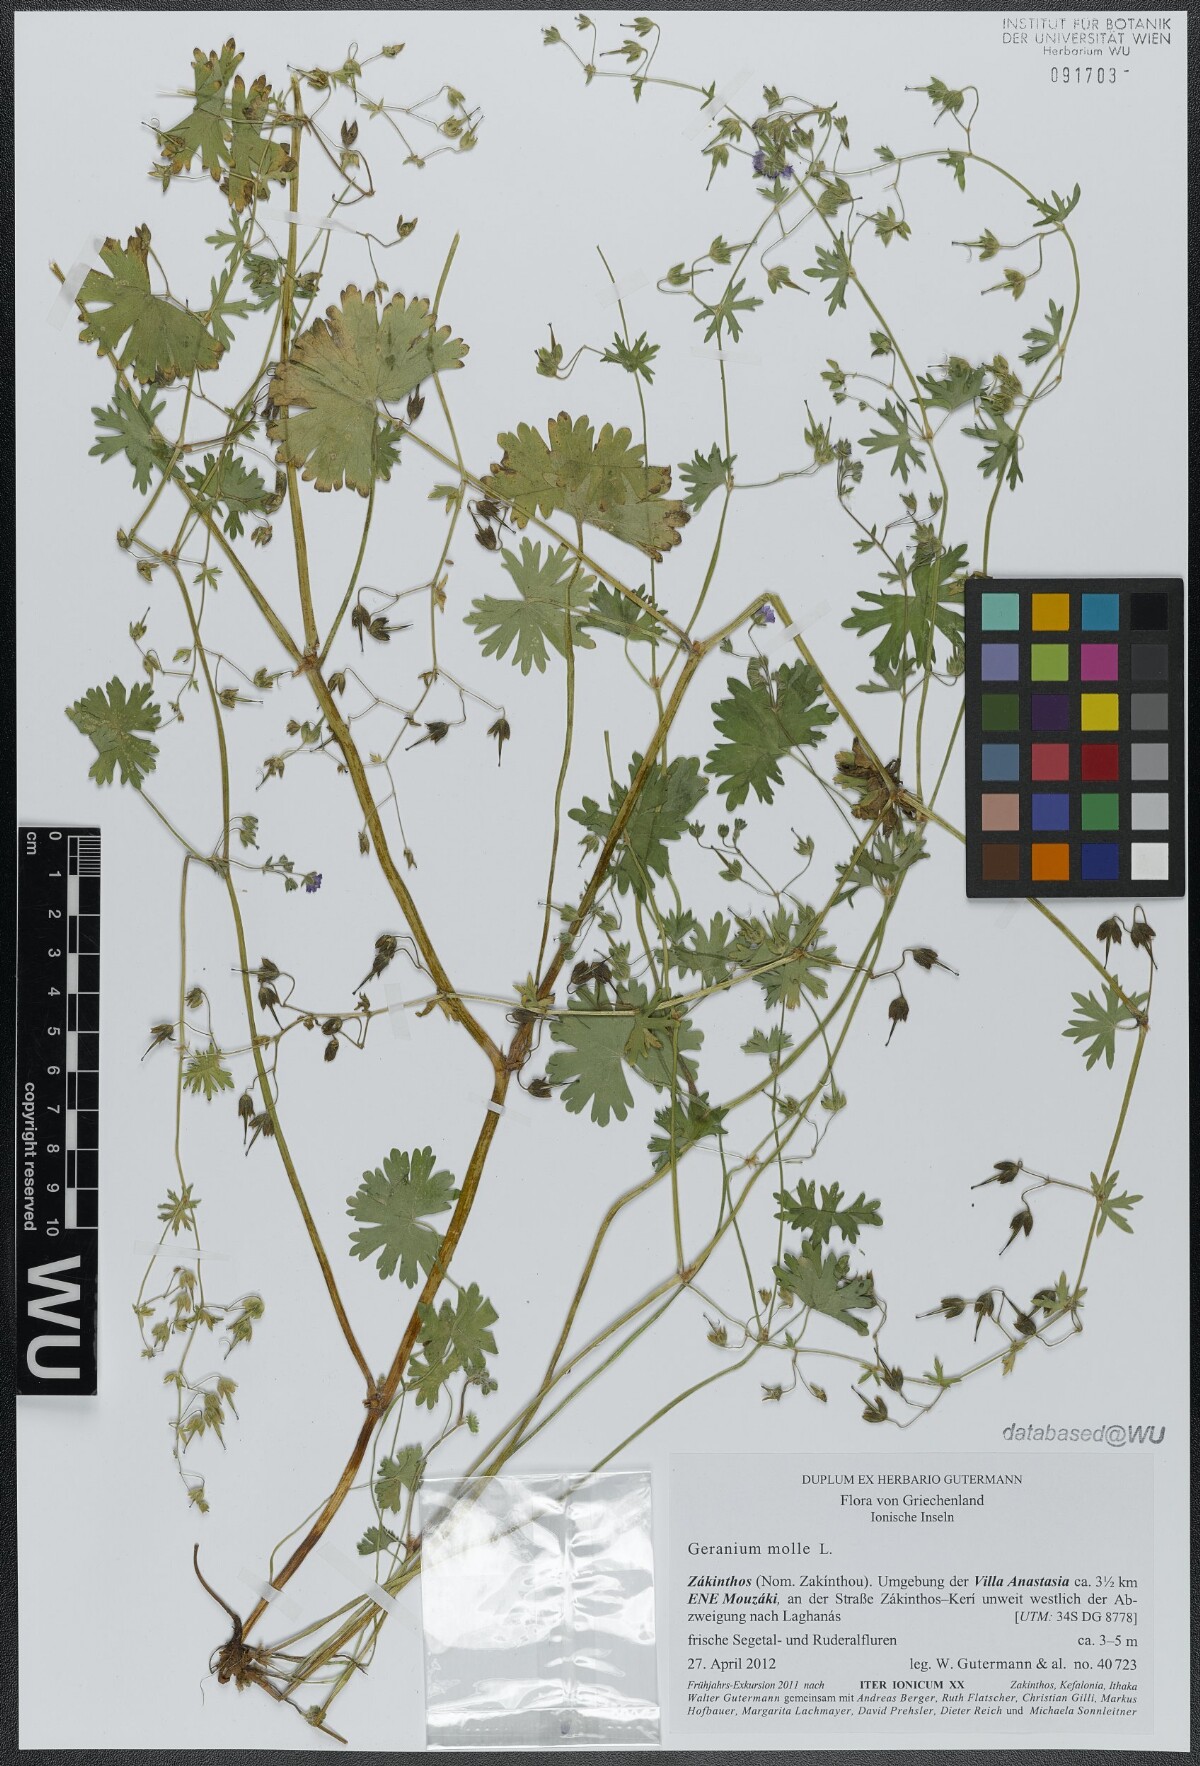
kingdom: Plantae
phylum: Tracheophyta
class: Magnoliopsida
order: Geraniales
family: Geraniaceae
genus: Geranium
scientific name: Geranium molle
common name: Dove's-foot crane's-bill
